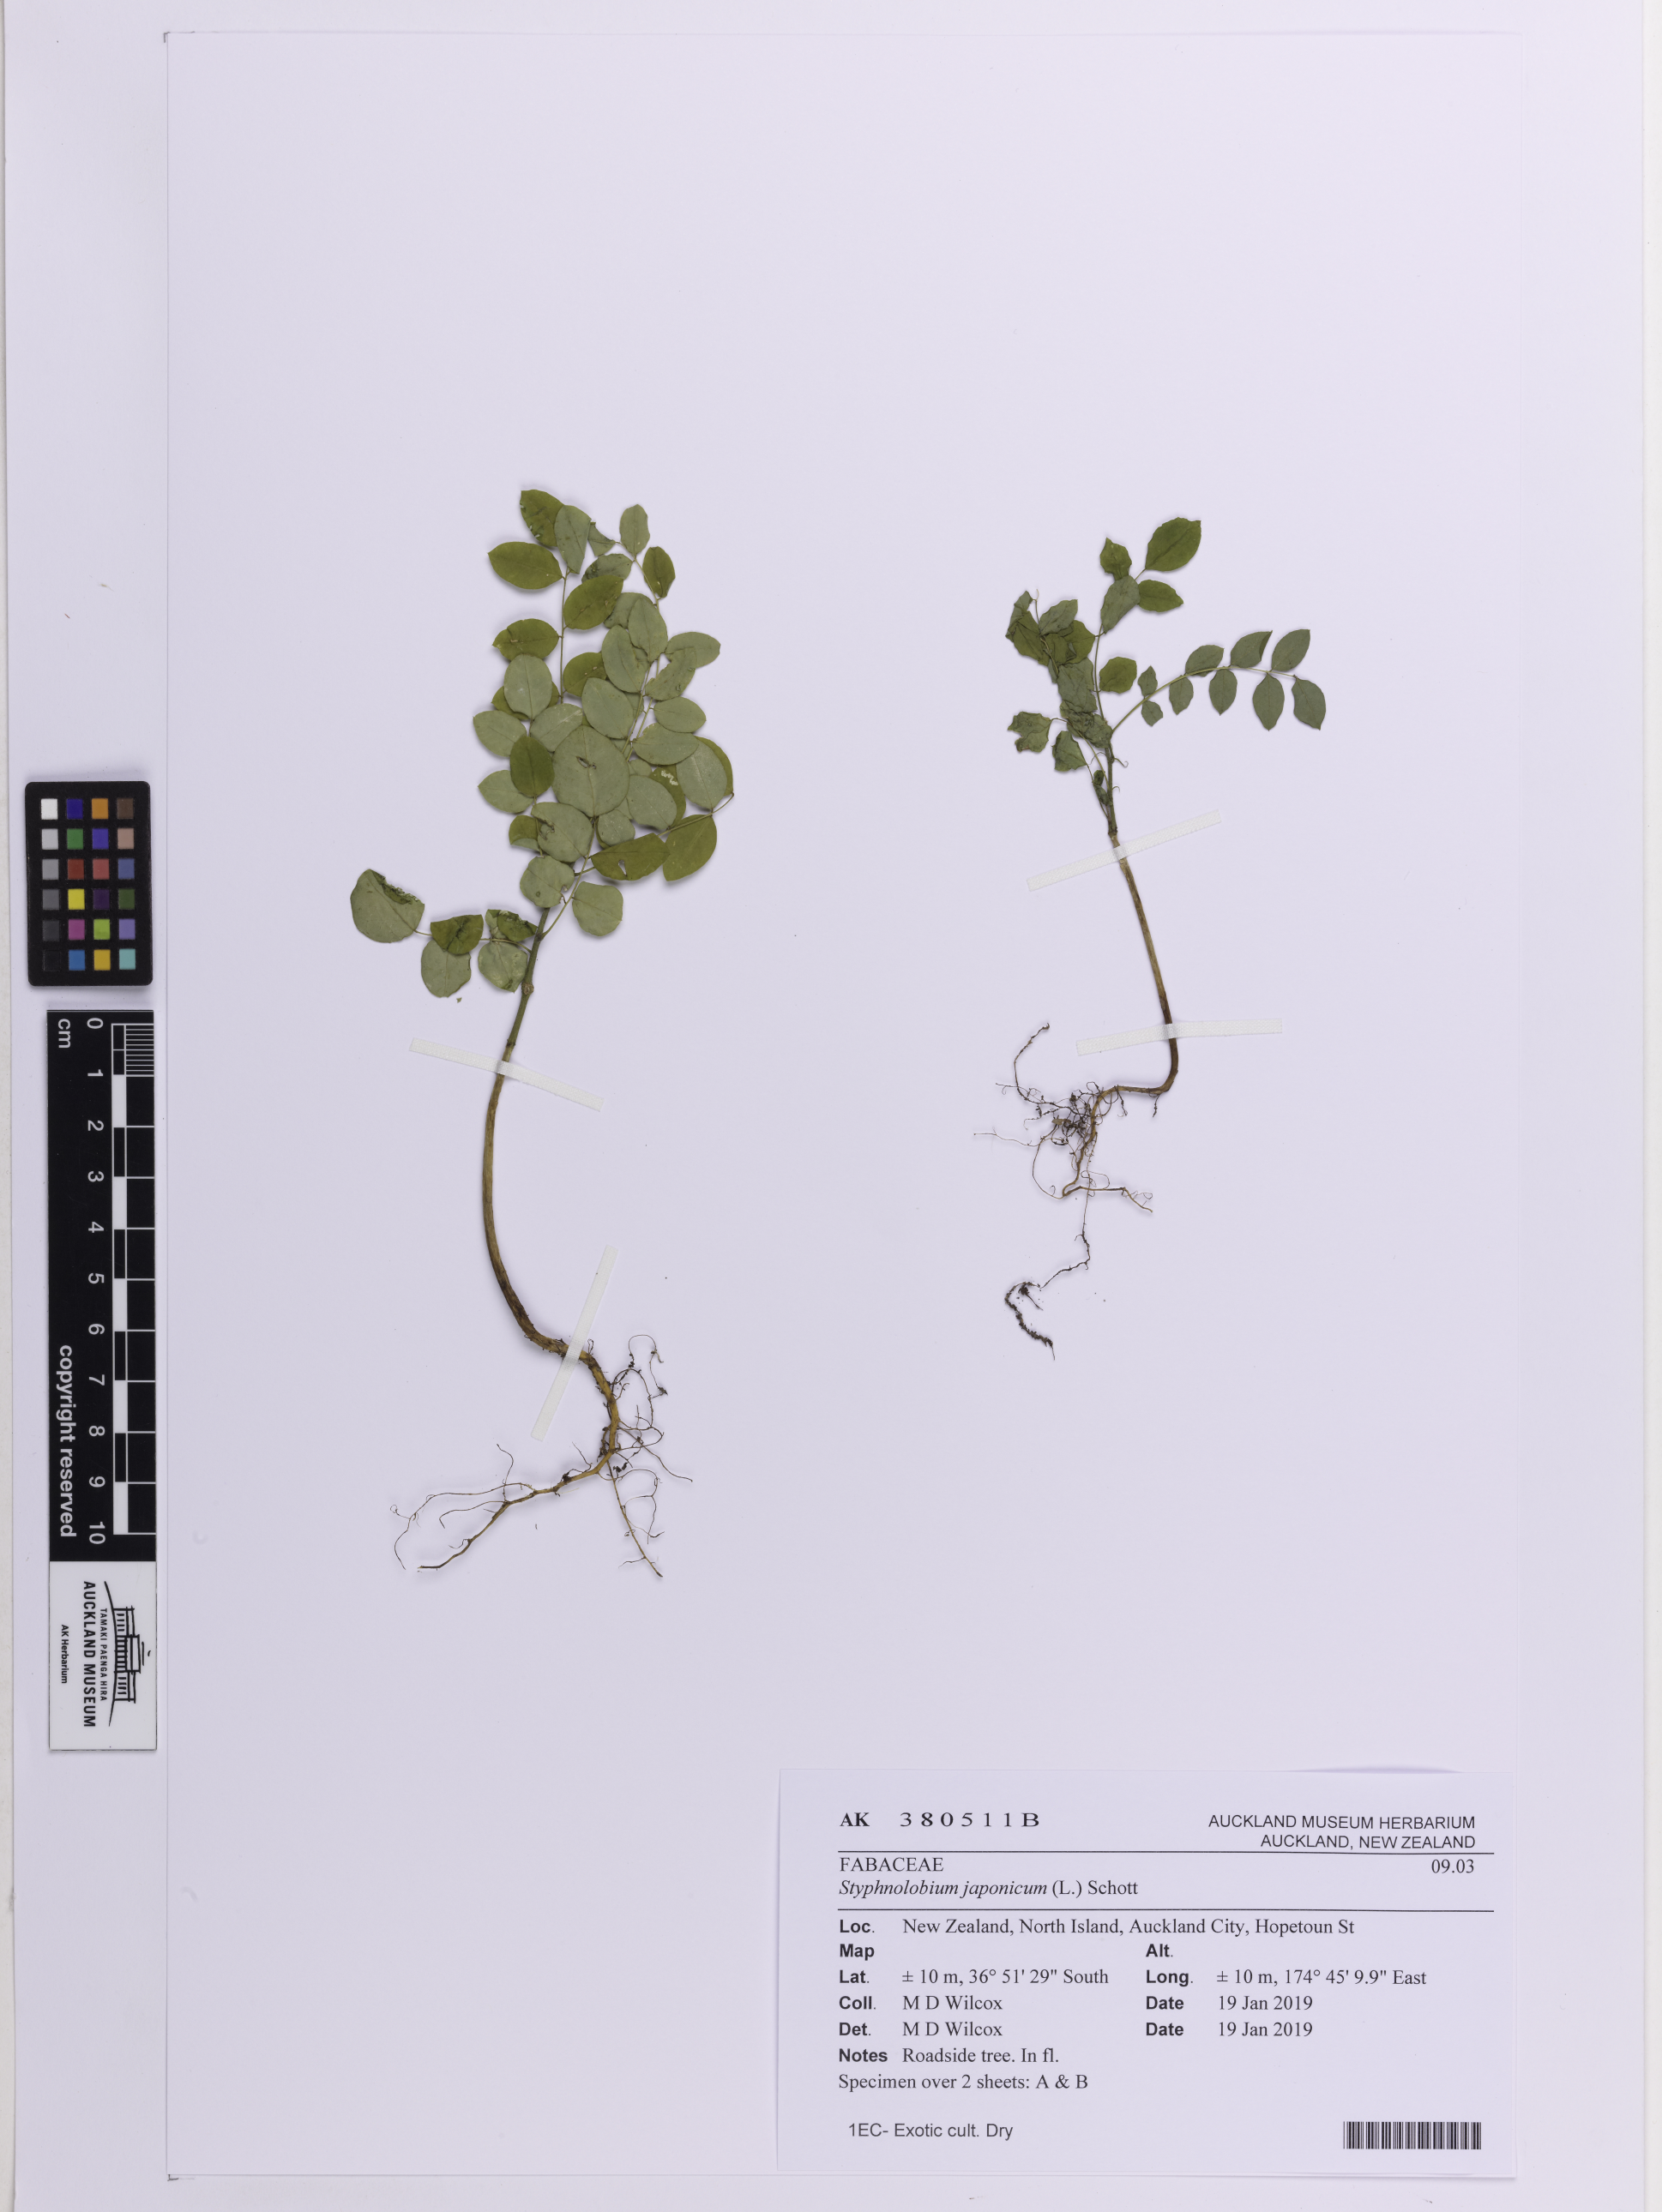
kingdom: Plantae
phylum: Tracheophyta
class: Magnoliopsida
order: Fabales
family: Fabaceae
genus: Styphnolobium
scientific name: Styphnolobium japonicum
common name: Chinese scholartree
